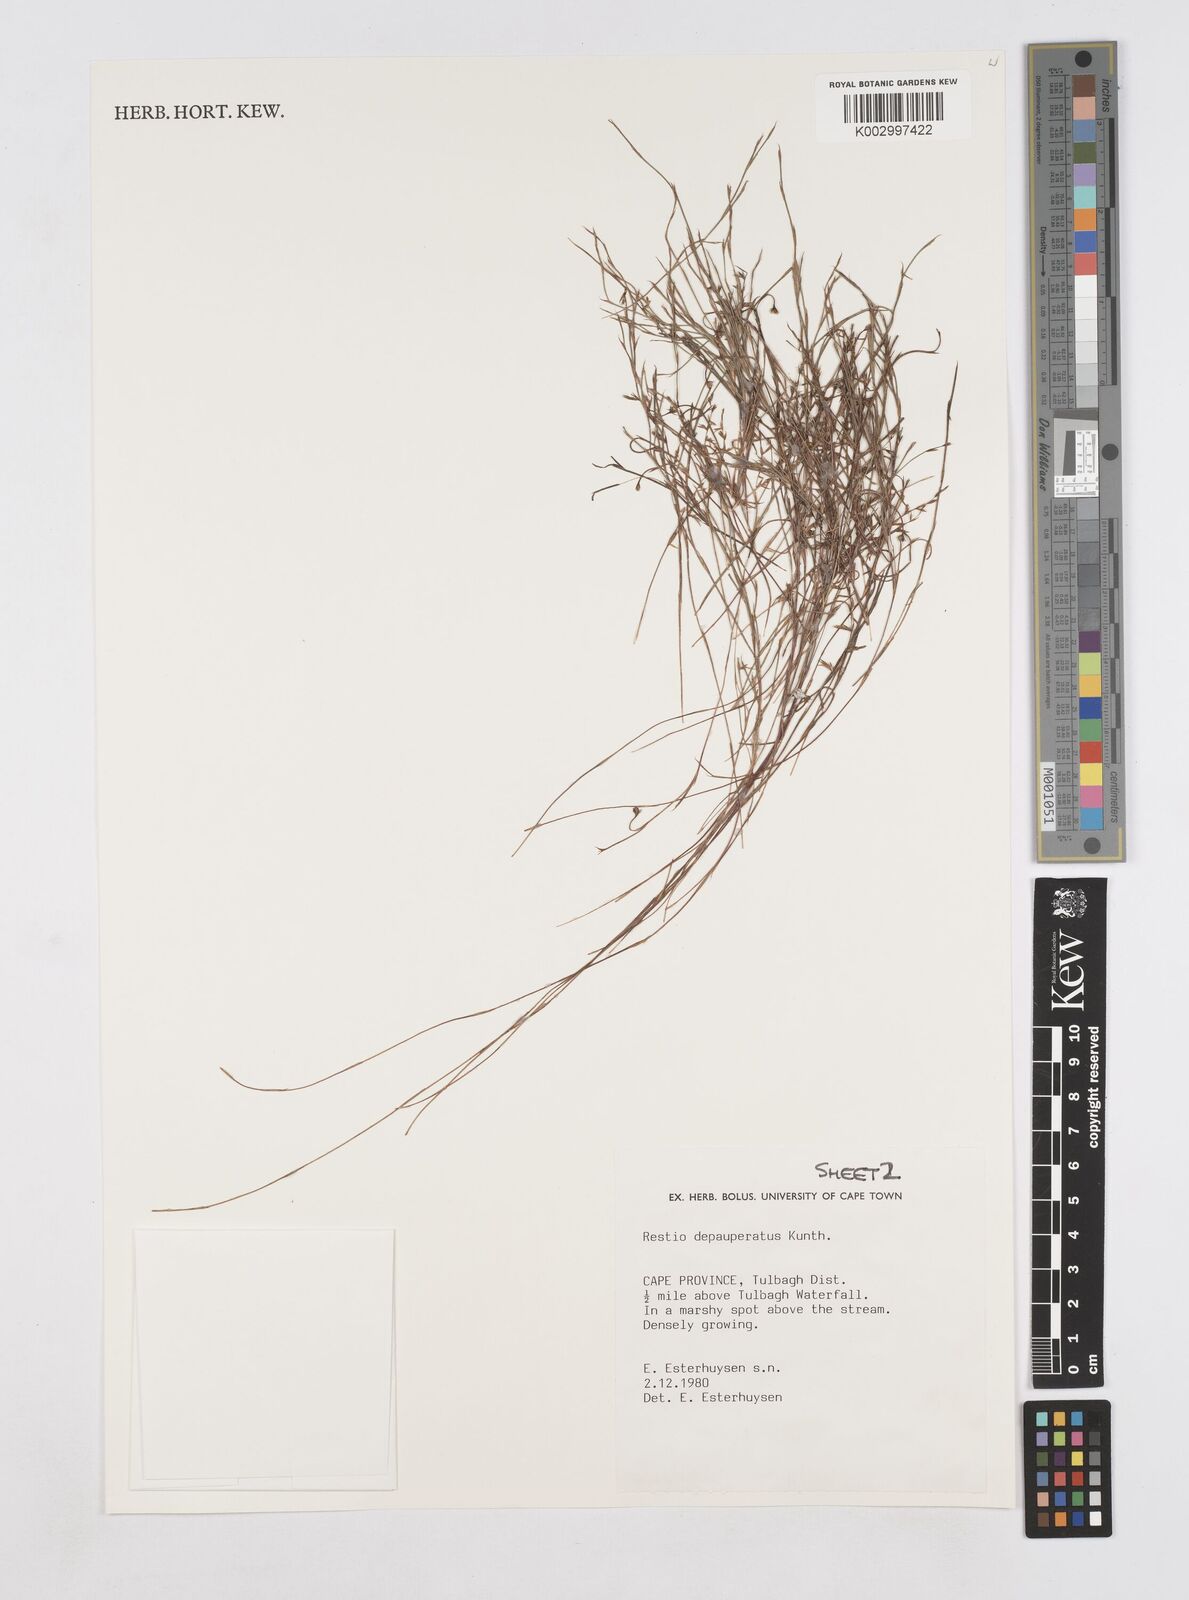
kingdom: Plantae
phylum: Tracheophyta
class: Liliopsida
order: Poales
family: Restionaceae
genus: Platycaulos
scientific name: Platycaulos depauperatus
